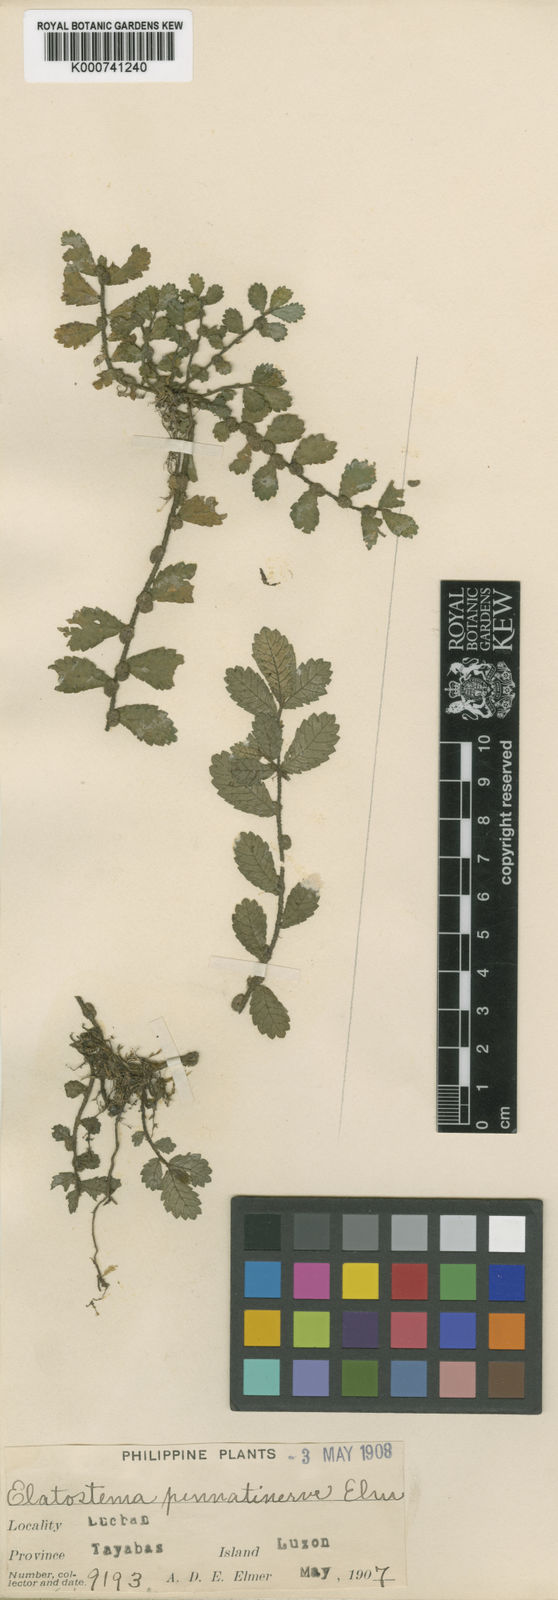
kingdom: Plantae
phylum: Tracheophyta
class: Magnoliopsida
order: Rosales
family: Urticaceae
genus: Elatostema
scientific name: Elatostema pinnatinervium
